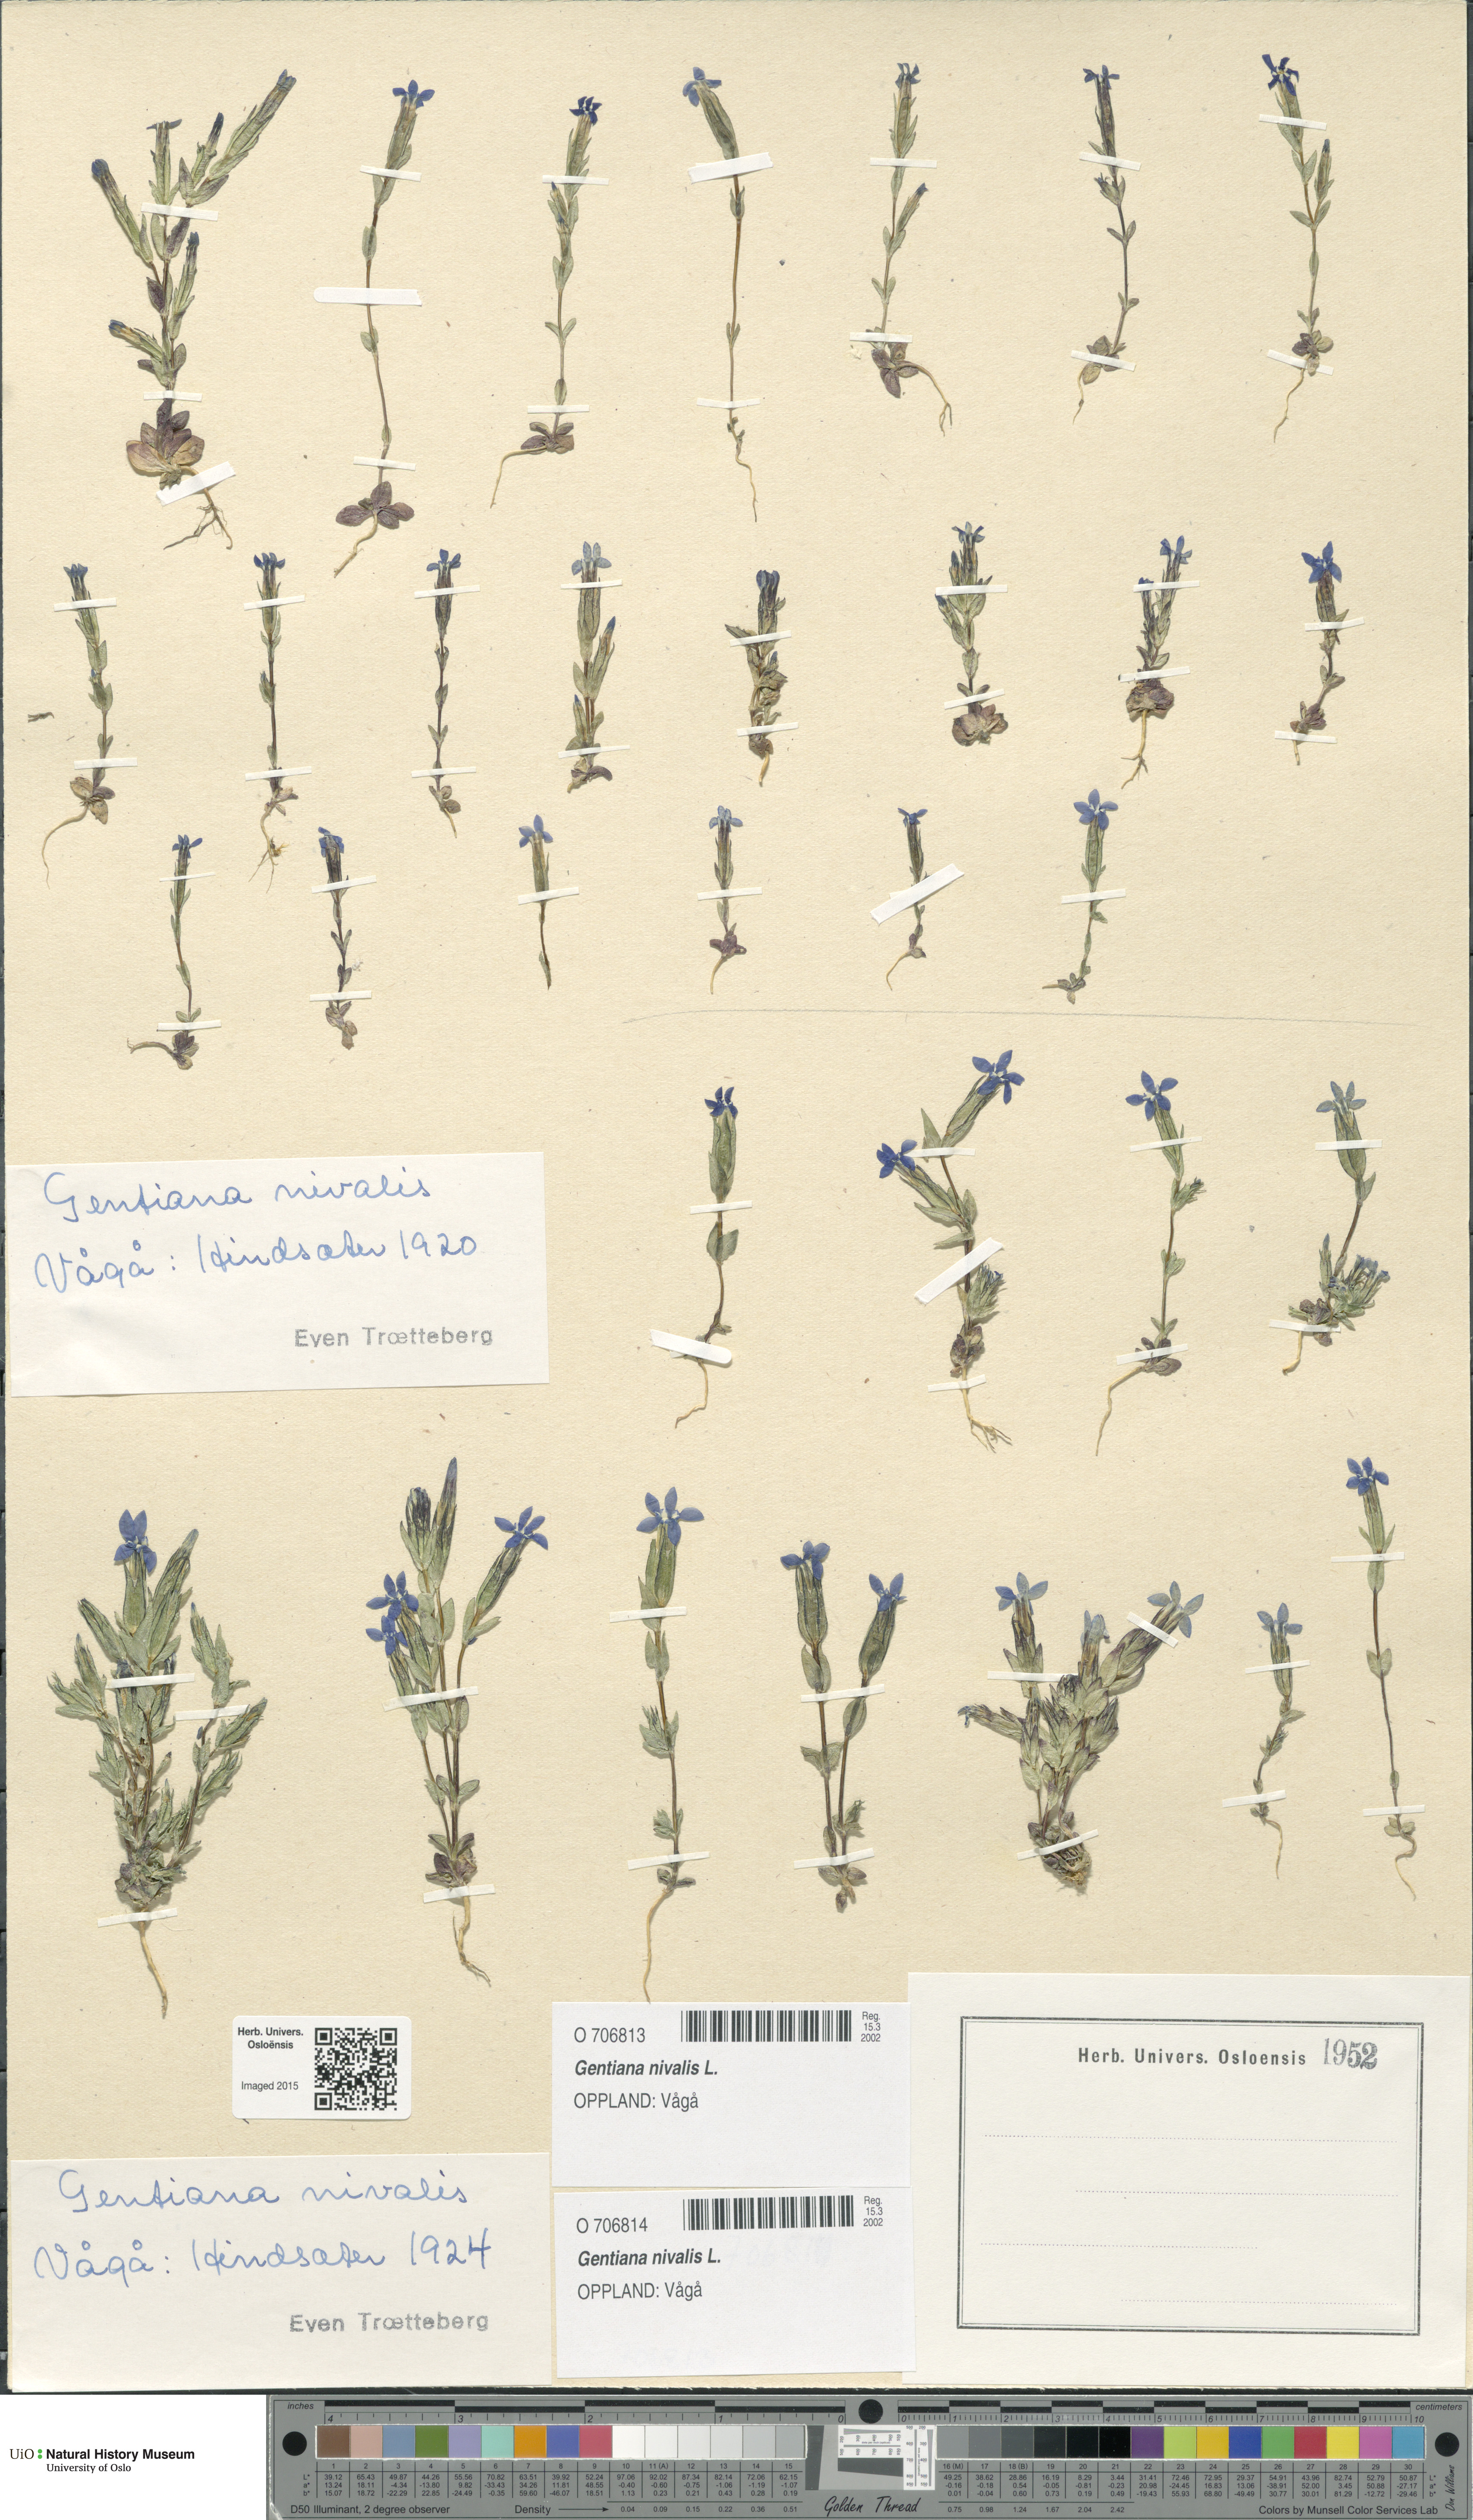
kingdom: Plantae
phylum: Tracheophyta
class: Magnoliopsida
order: Gentianales
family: Gentianaceae
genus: Gentiana
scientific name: Gentiana nivalis
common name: Alpine gentian
